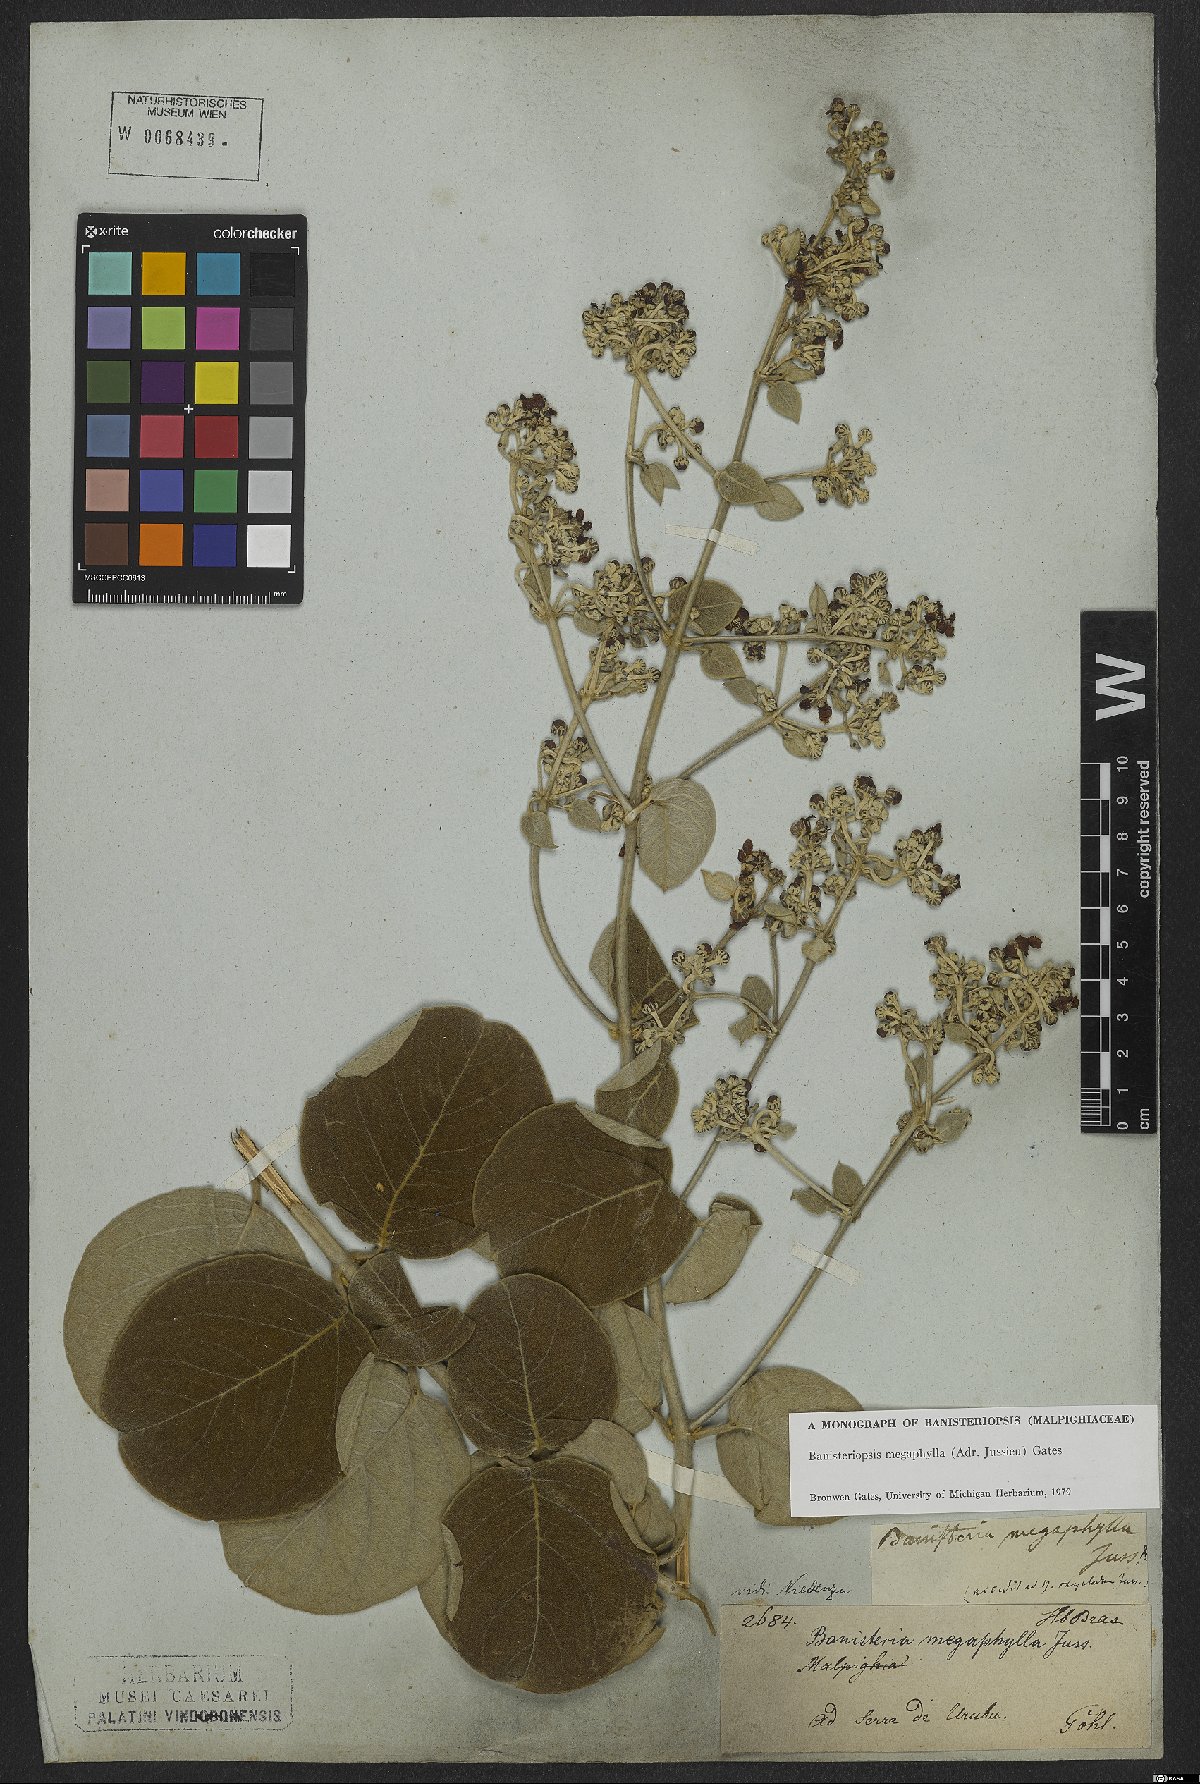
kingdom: Plantae
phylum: Tracheophyta
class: Magnoliopsida
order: Malpighiales
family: Malpighiaceae
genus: Banisteriopsis
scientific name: Banisteriopsis megaphylla
